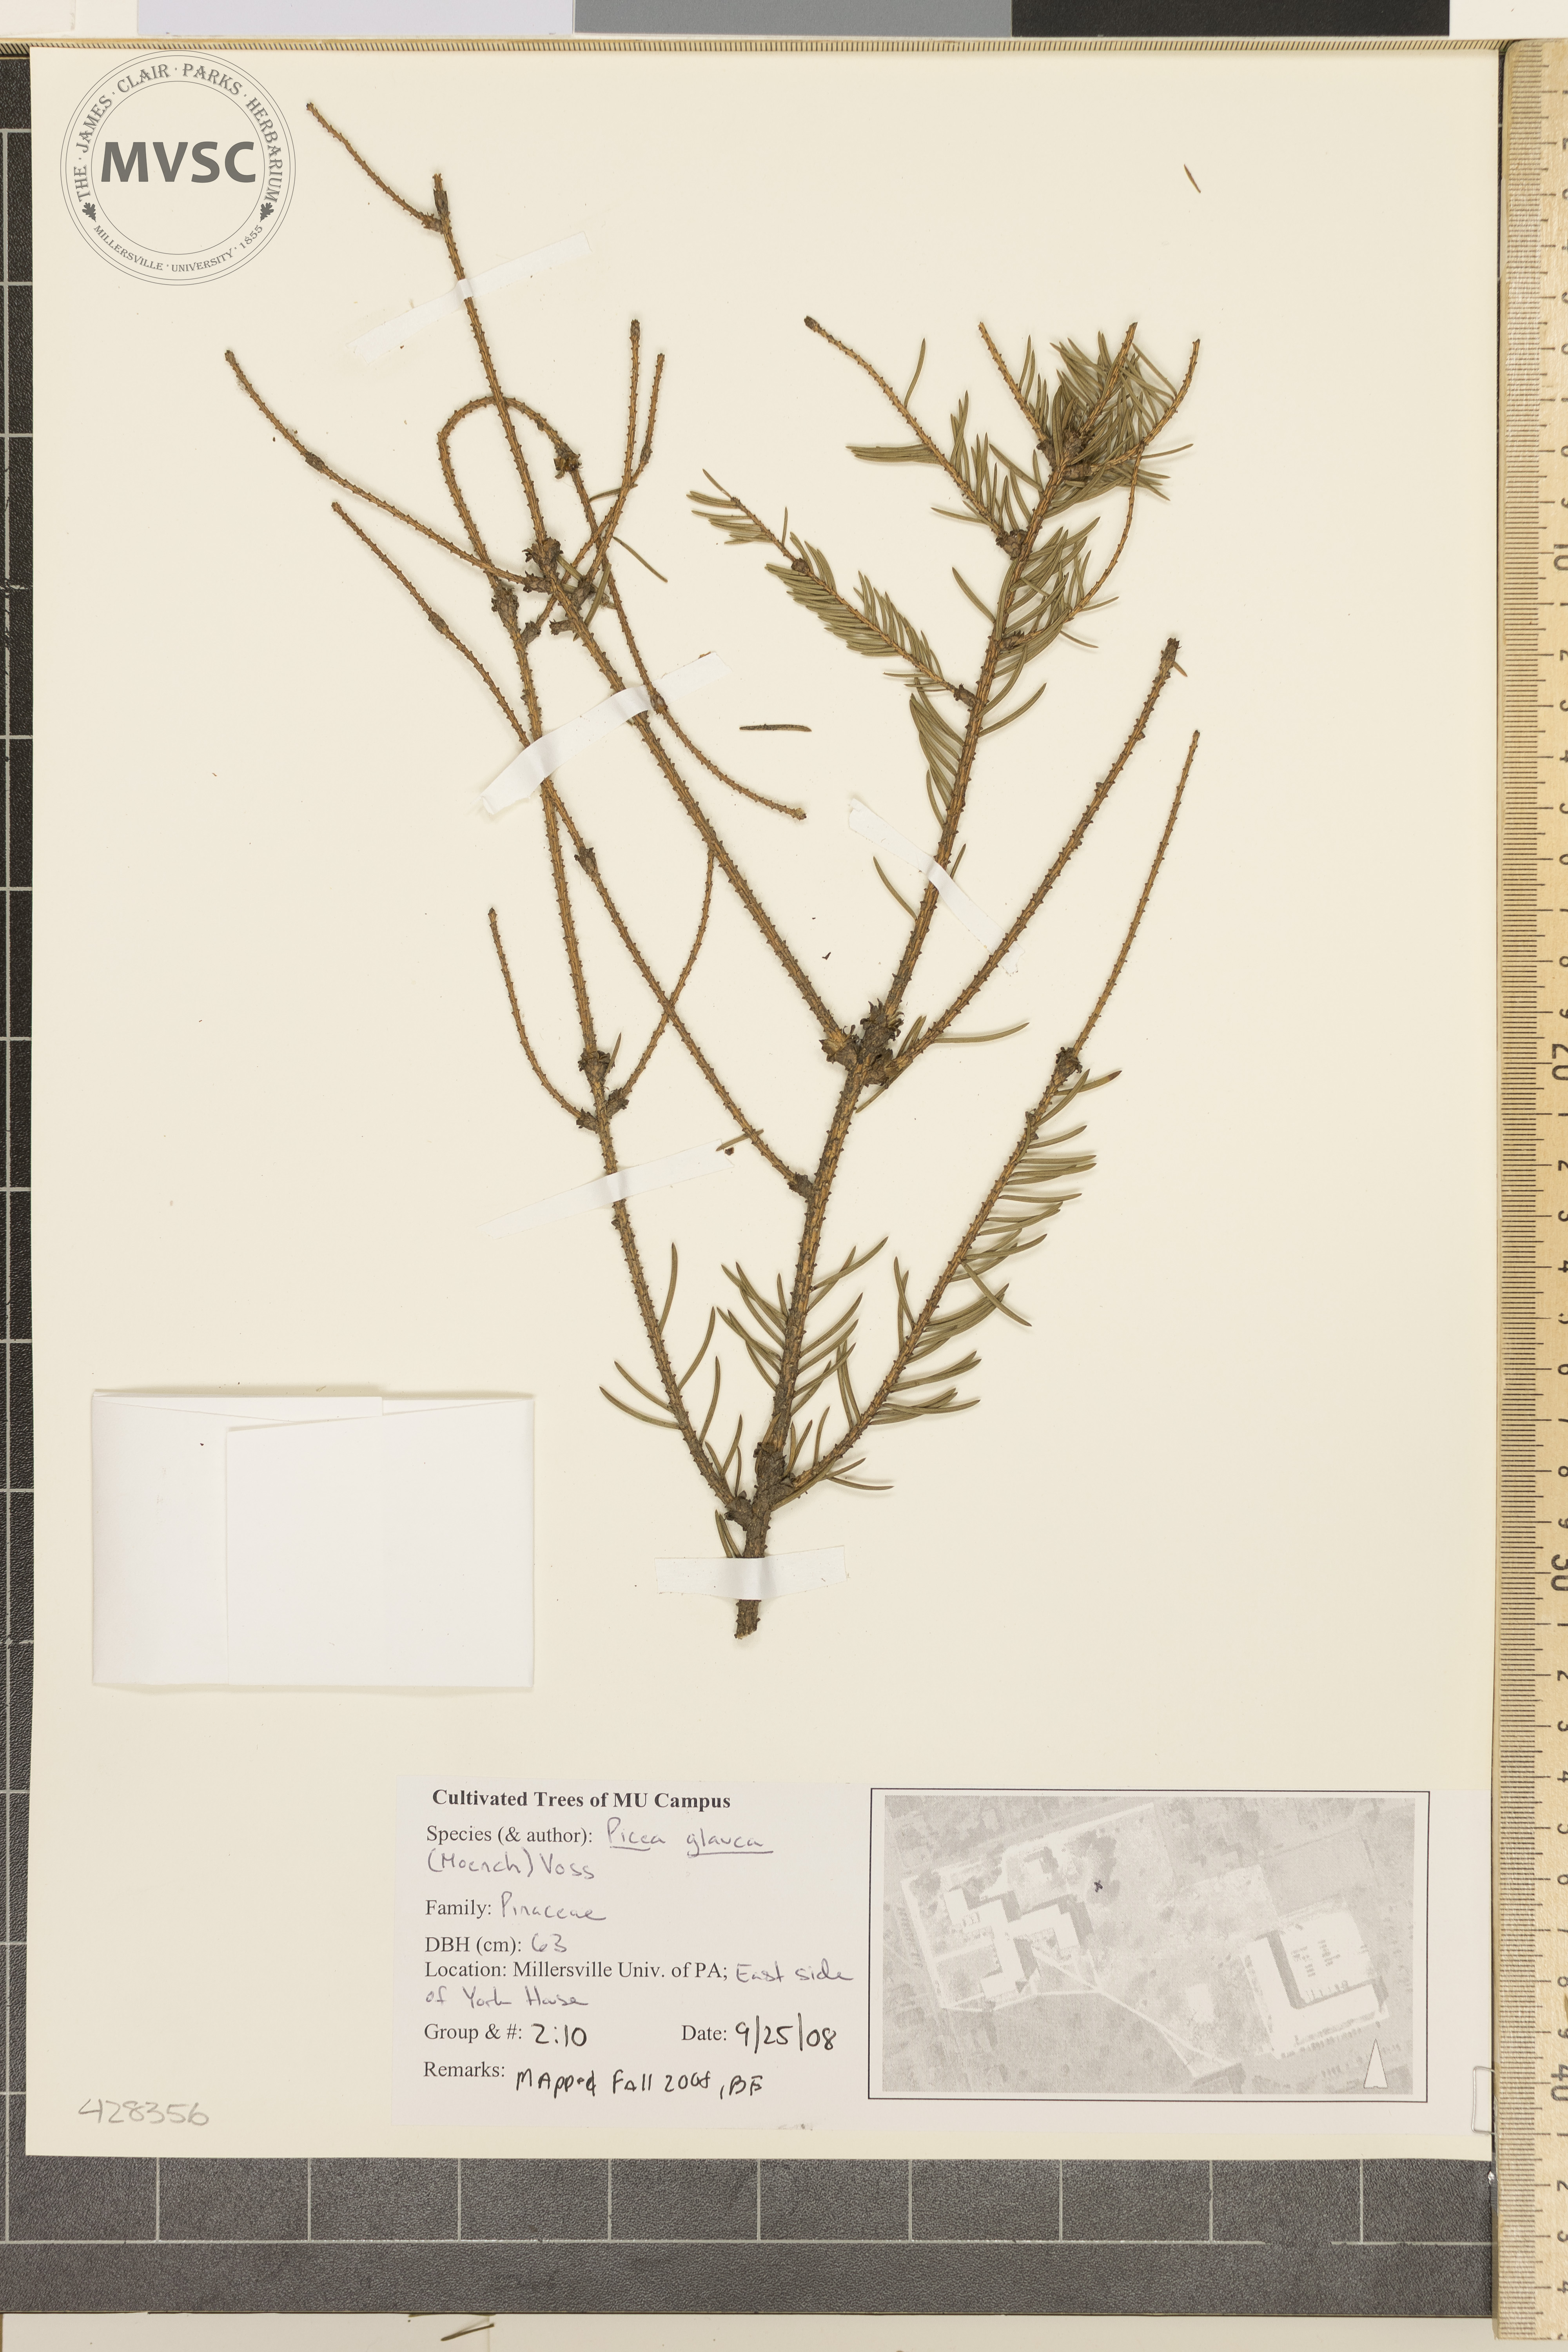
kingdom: Plantae
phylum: Tracheophyta
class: Pinopsida
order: Pinales
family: Pinaceae
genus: Picea
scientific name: Picea glauca
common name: White Spruce
